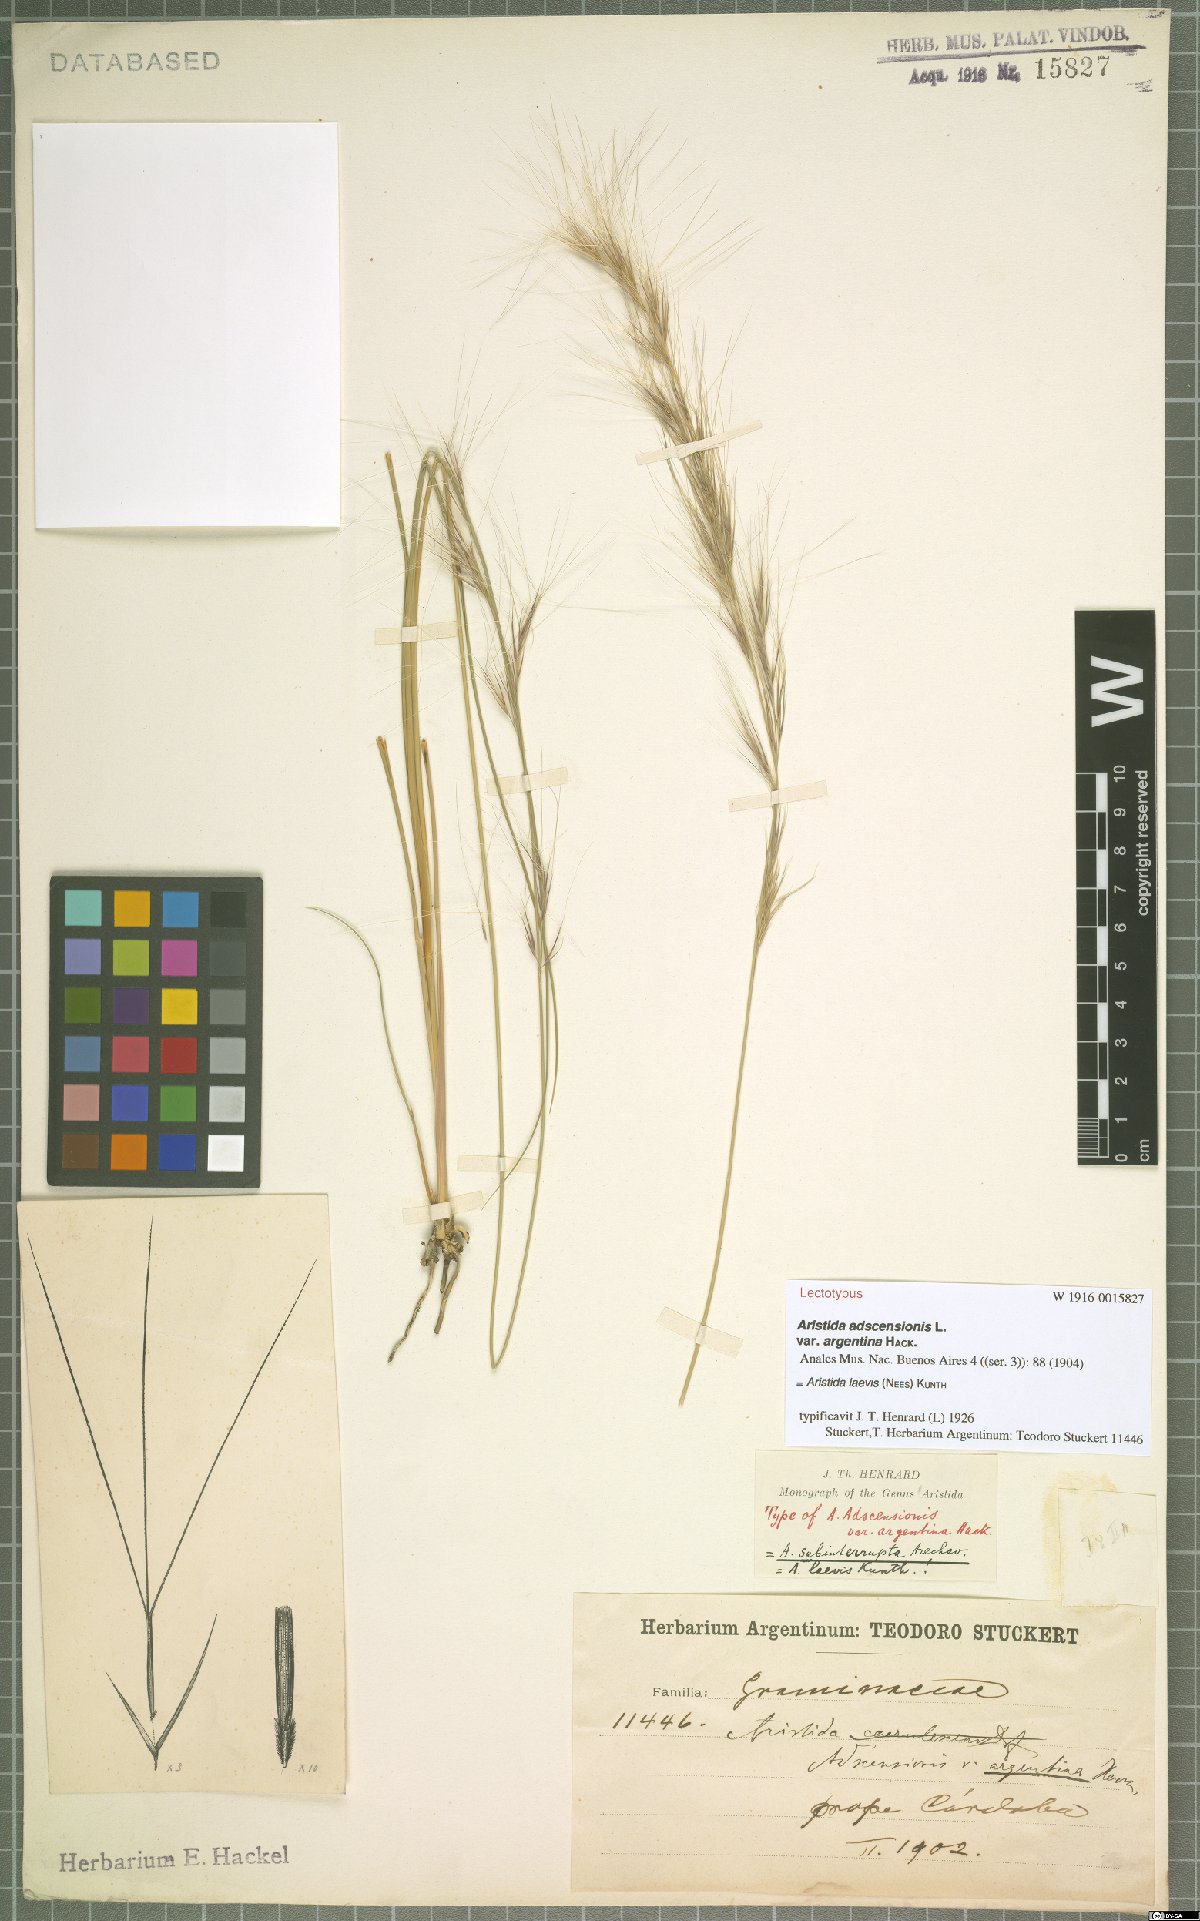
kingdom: Plantae
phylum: Tracheophyta
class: Liliopsida
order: Poales
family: Poaceae
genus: Aristida
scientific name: Aristida laevis
